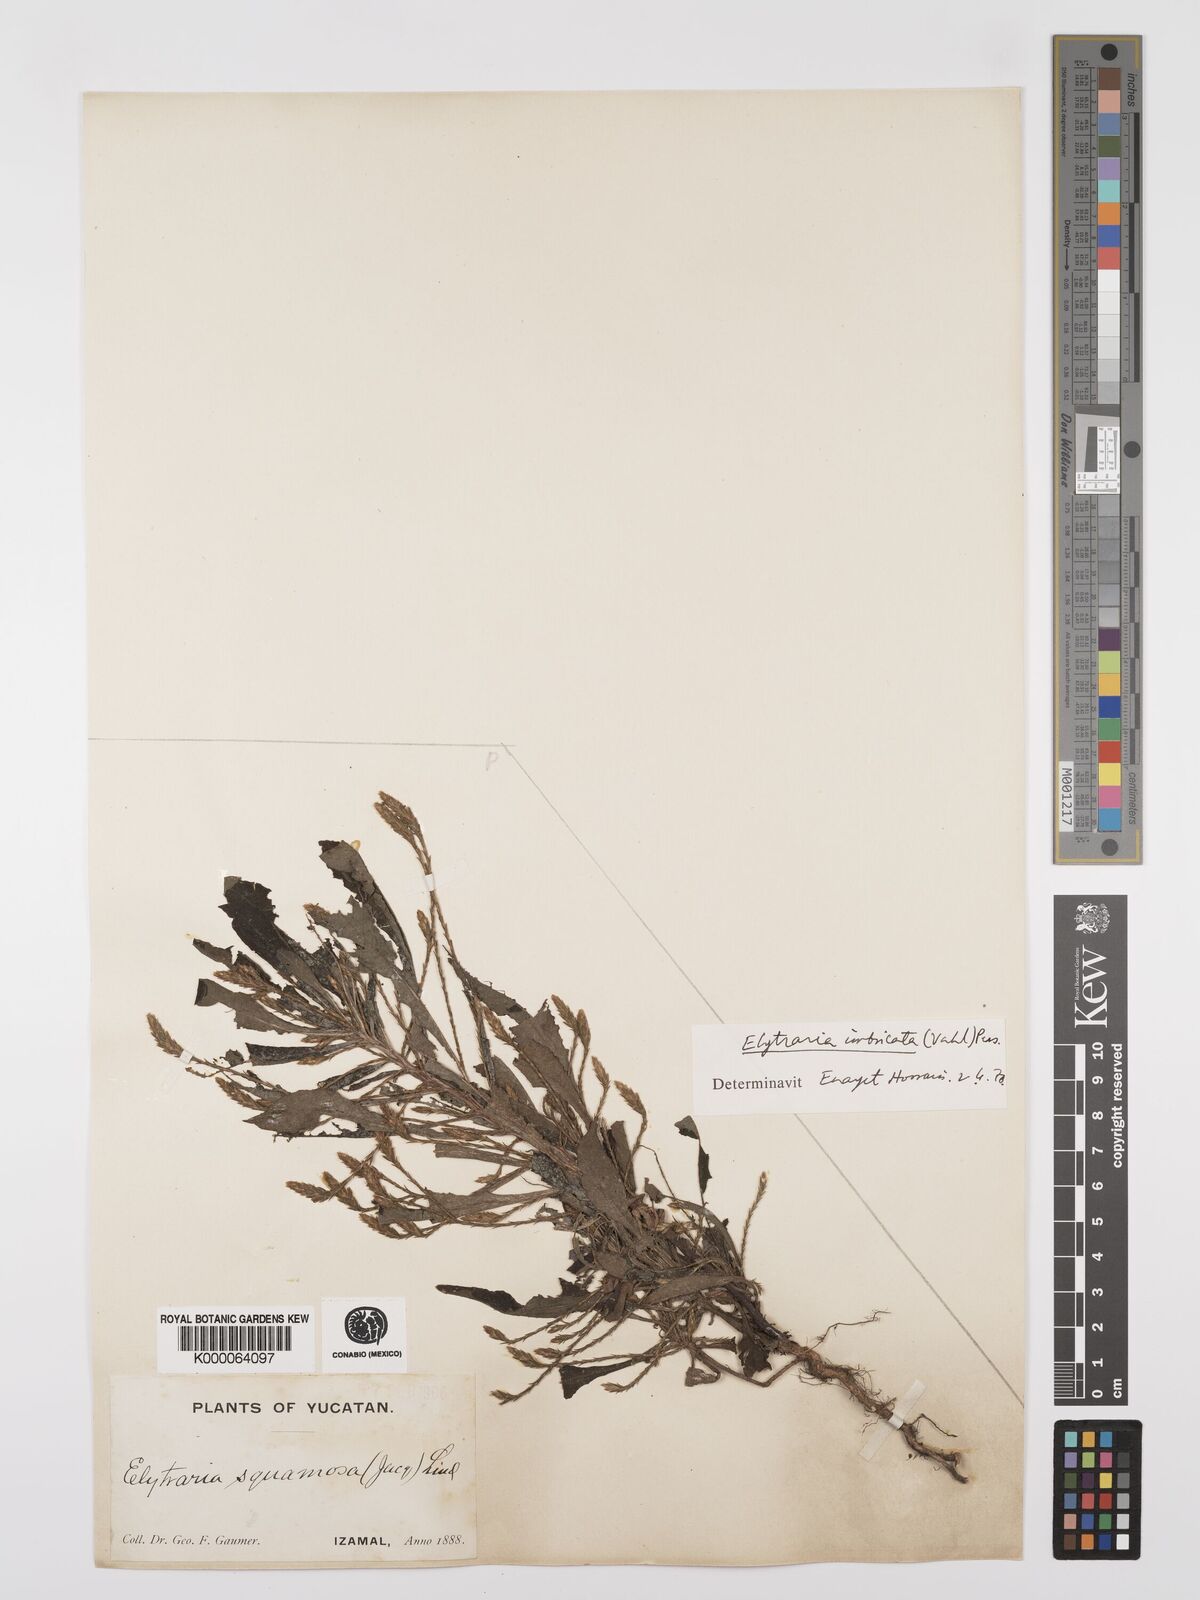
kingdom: Plantae
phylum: Tracheophyta
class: Magnoliopsida
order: Lamiales
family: Acanthaceae
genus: Elytraria
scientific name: Elytraria imbricata
